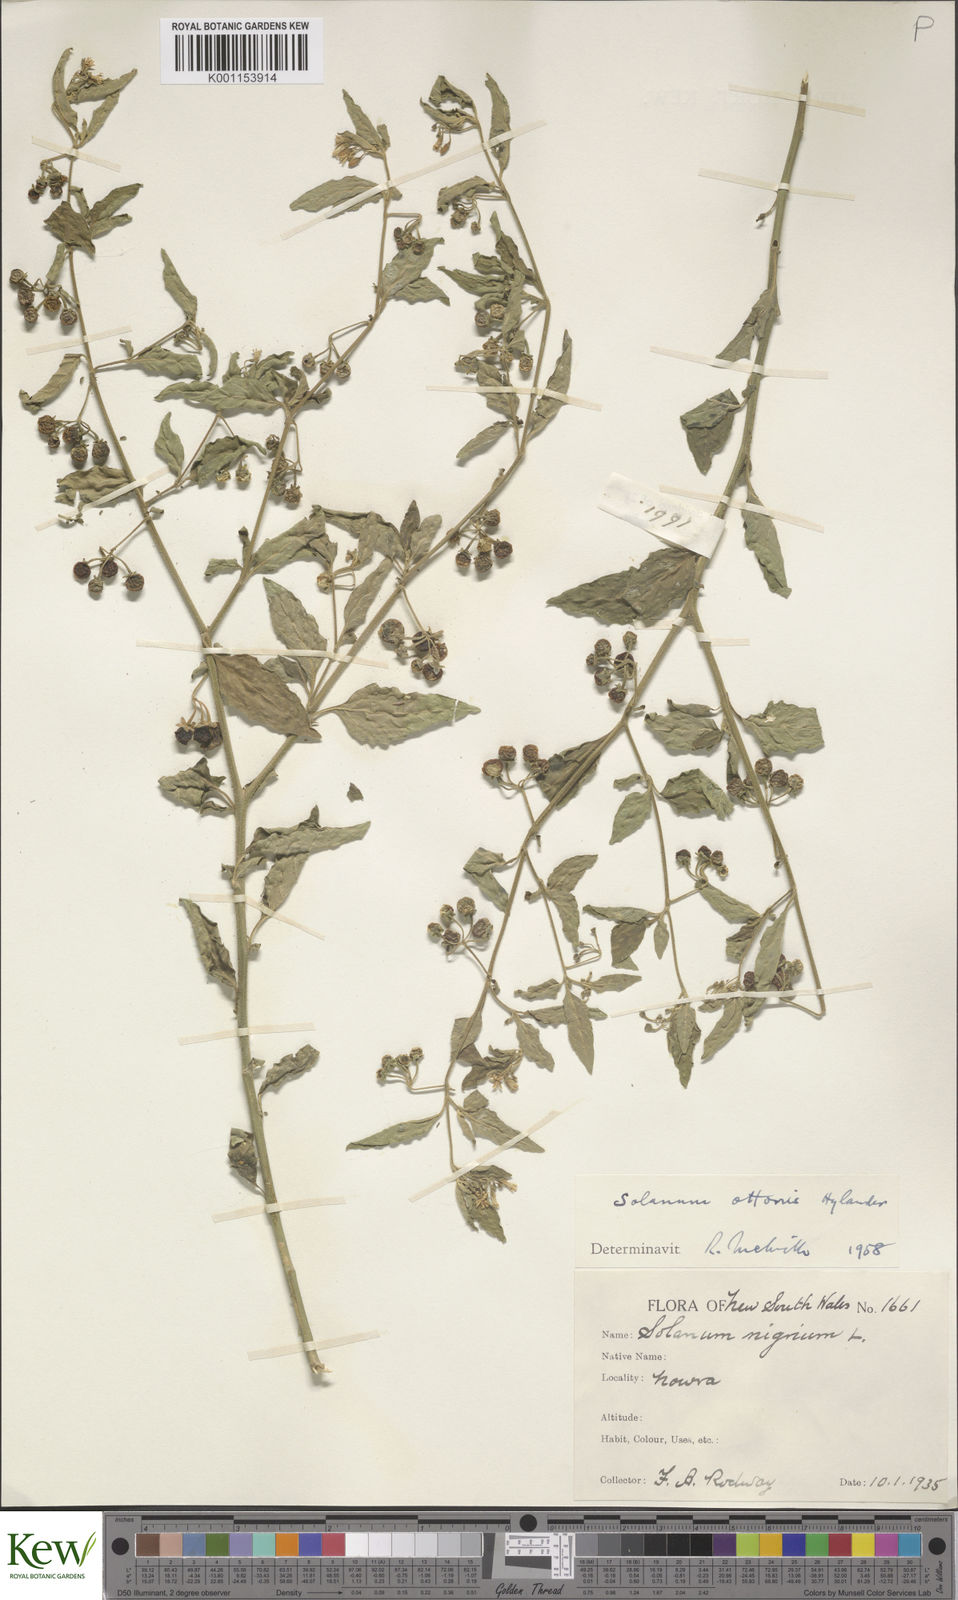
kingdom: Plantae
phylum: Tracheophyta
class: Magnoliopsida
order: Solanales
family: Solanaceae
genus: Solanum
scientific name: Solanum chenopodioides
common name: Tall nightshade
